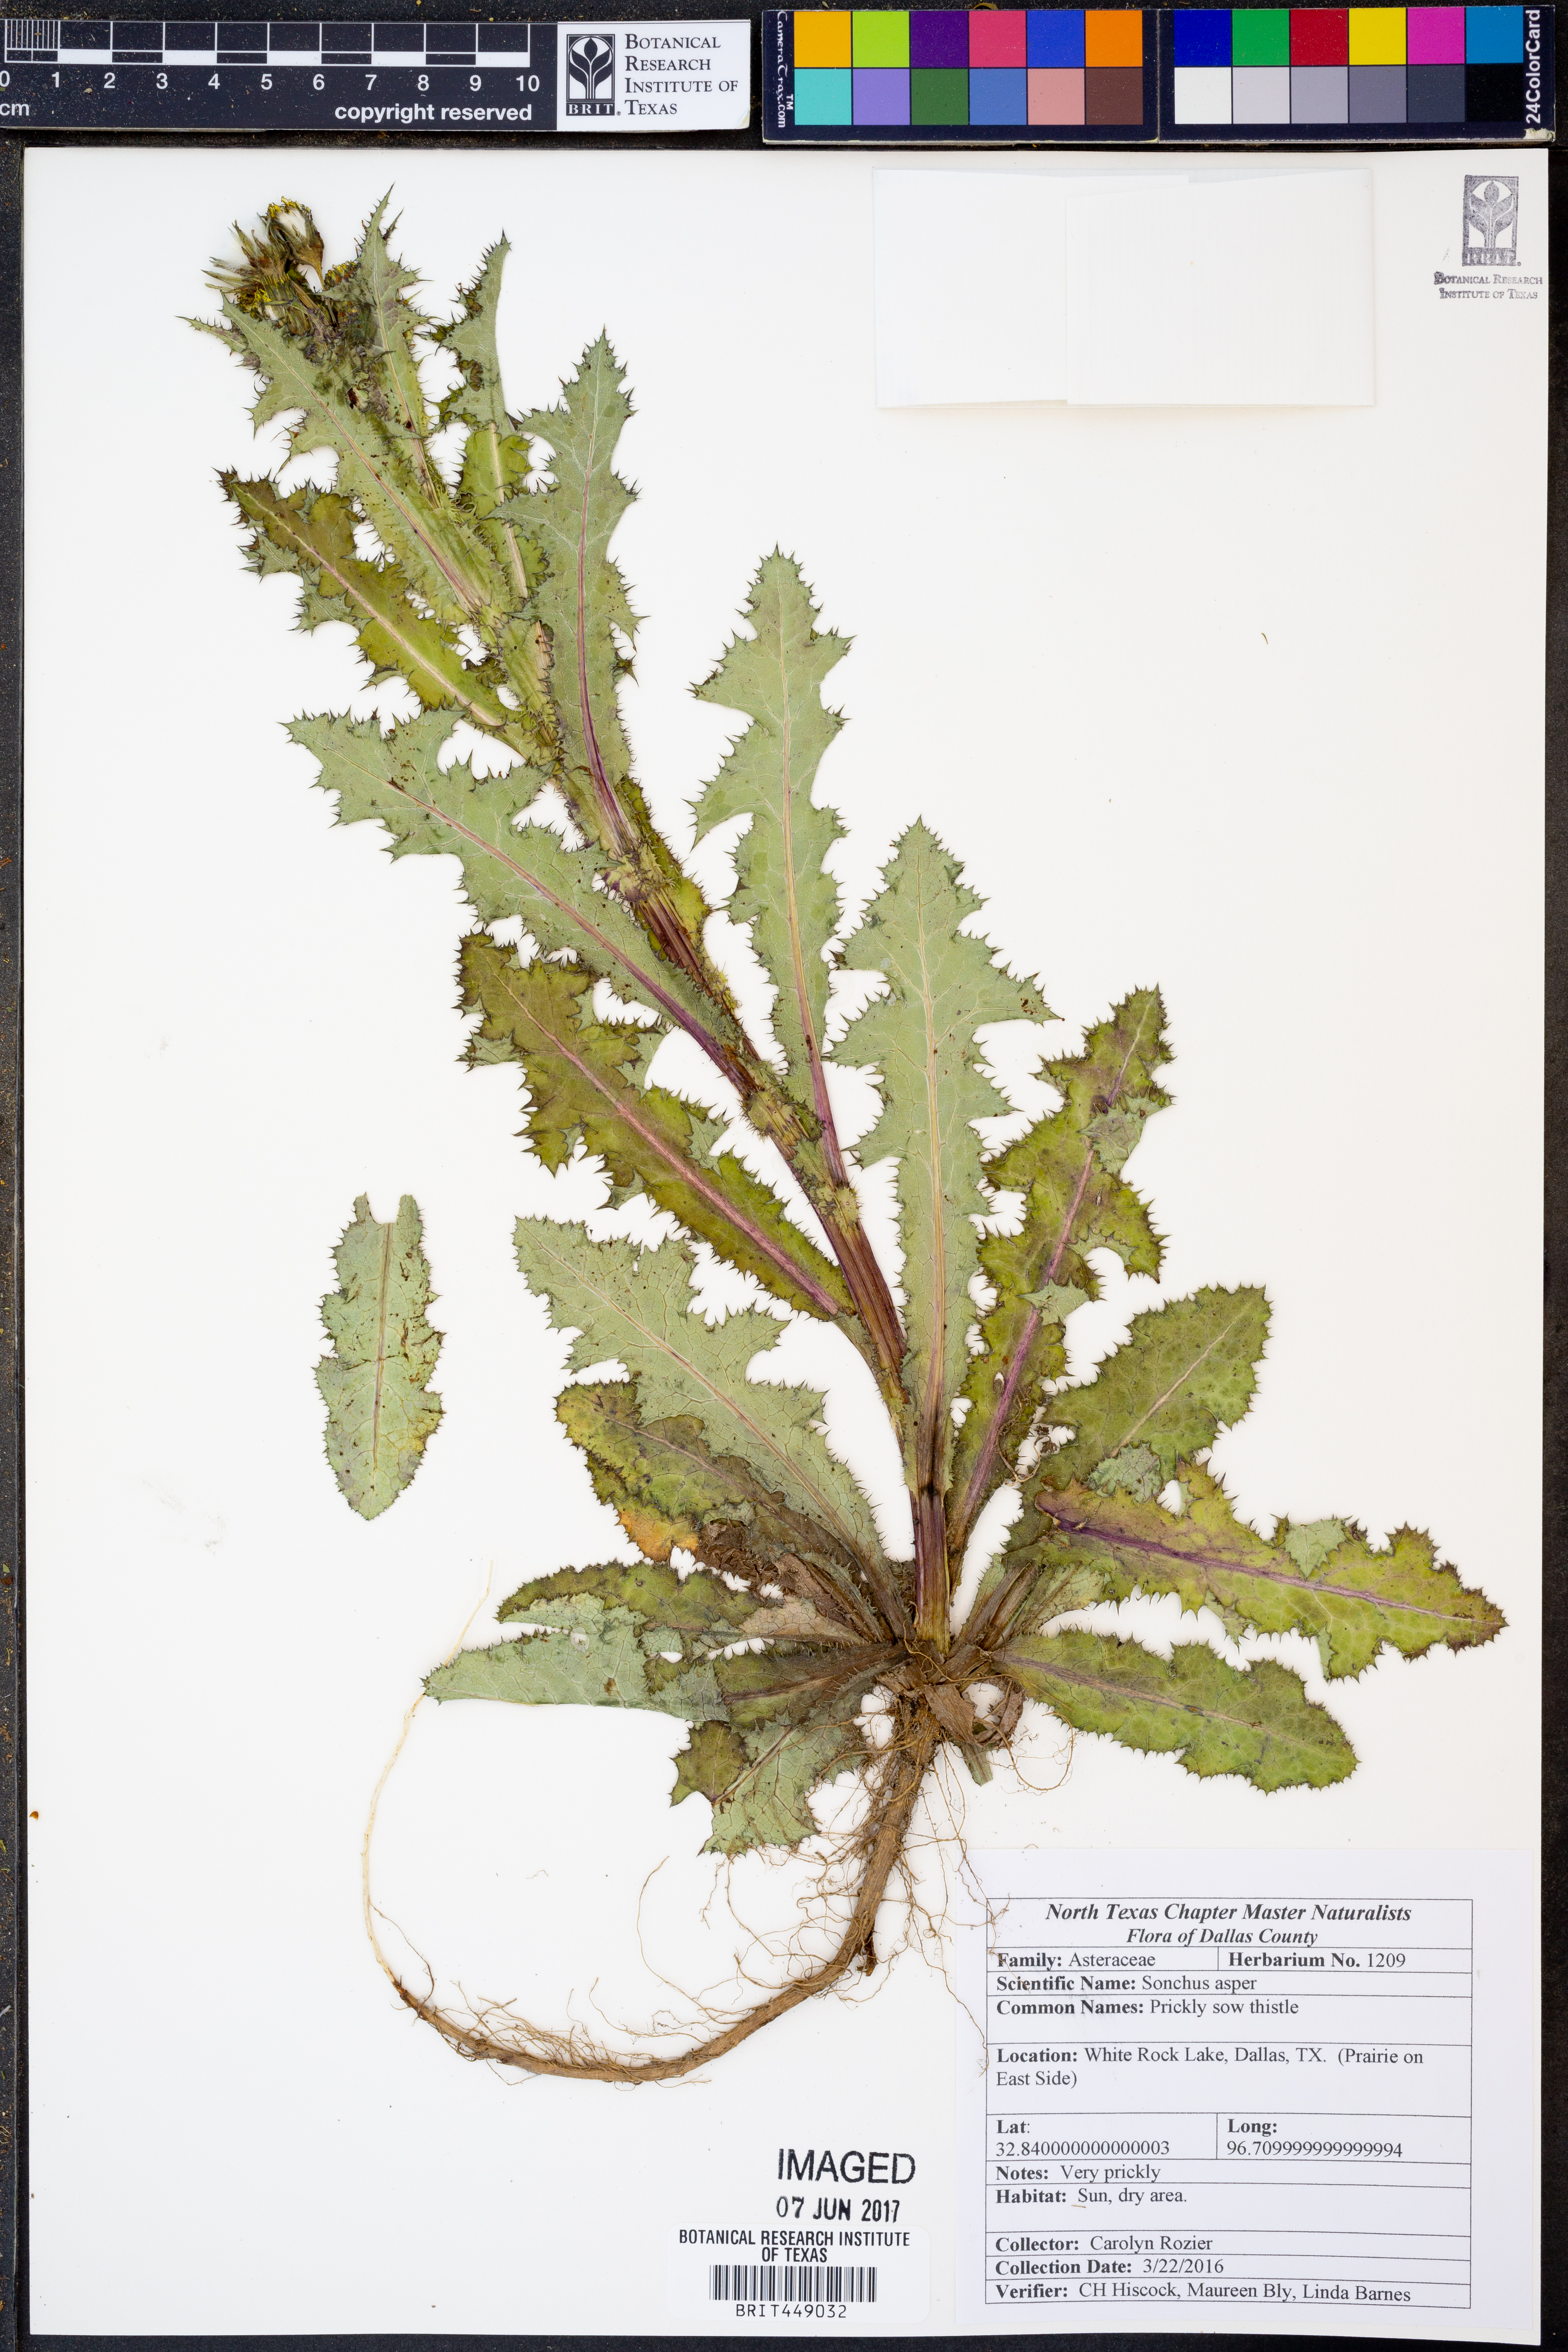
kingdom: Plantae
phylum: Tracheophyta
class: Magnoliopsida
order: Asterales
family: Asteraceae
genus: Sonchus
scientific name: Sonchus asper
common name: Prickly sow-thistle
